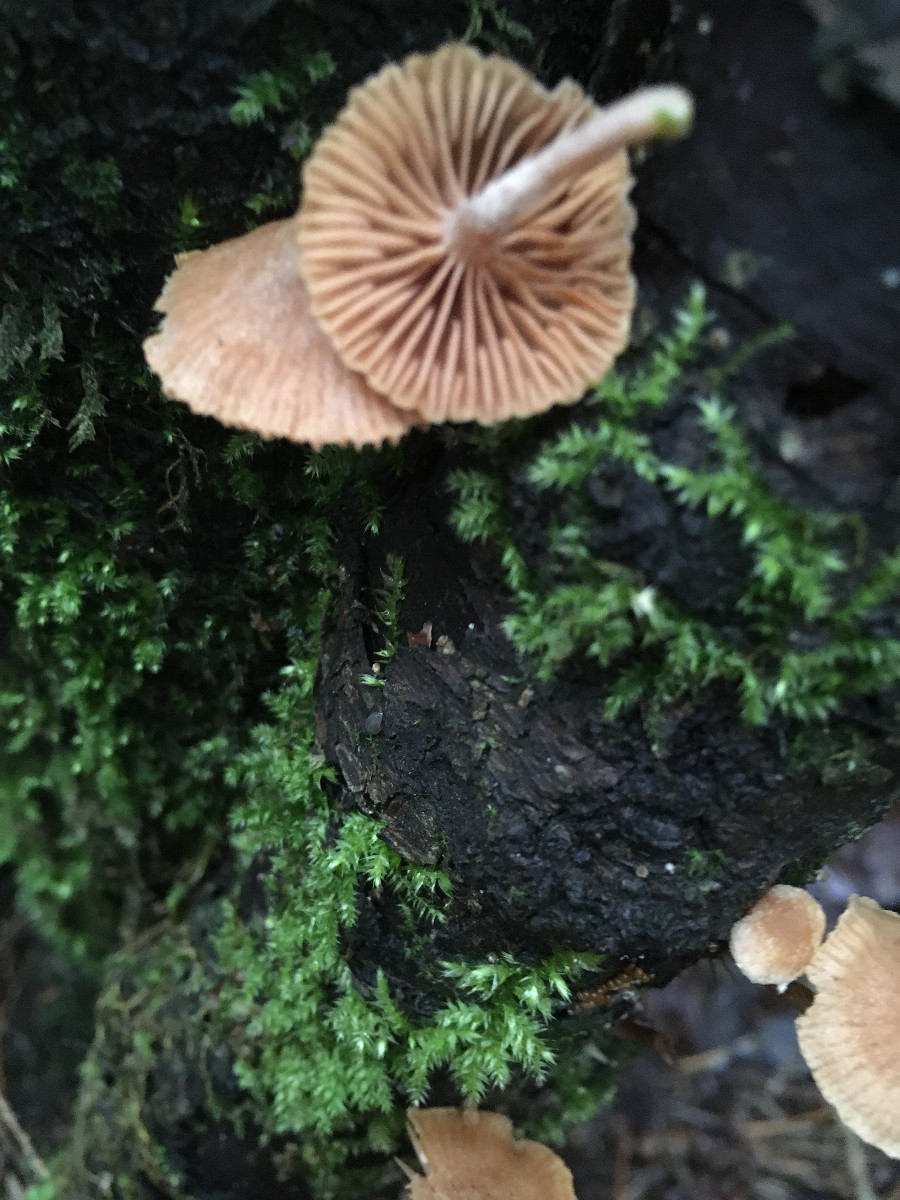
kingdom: Fungi
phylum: Basidiomycota
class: Agaricomycetes
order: Agaricales
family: Tubariaceae
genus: Tubaria
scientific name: Tubaria
